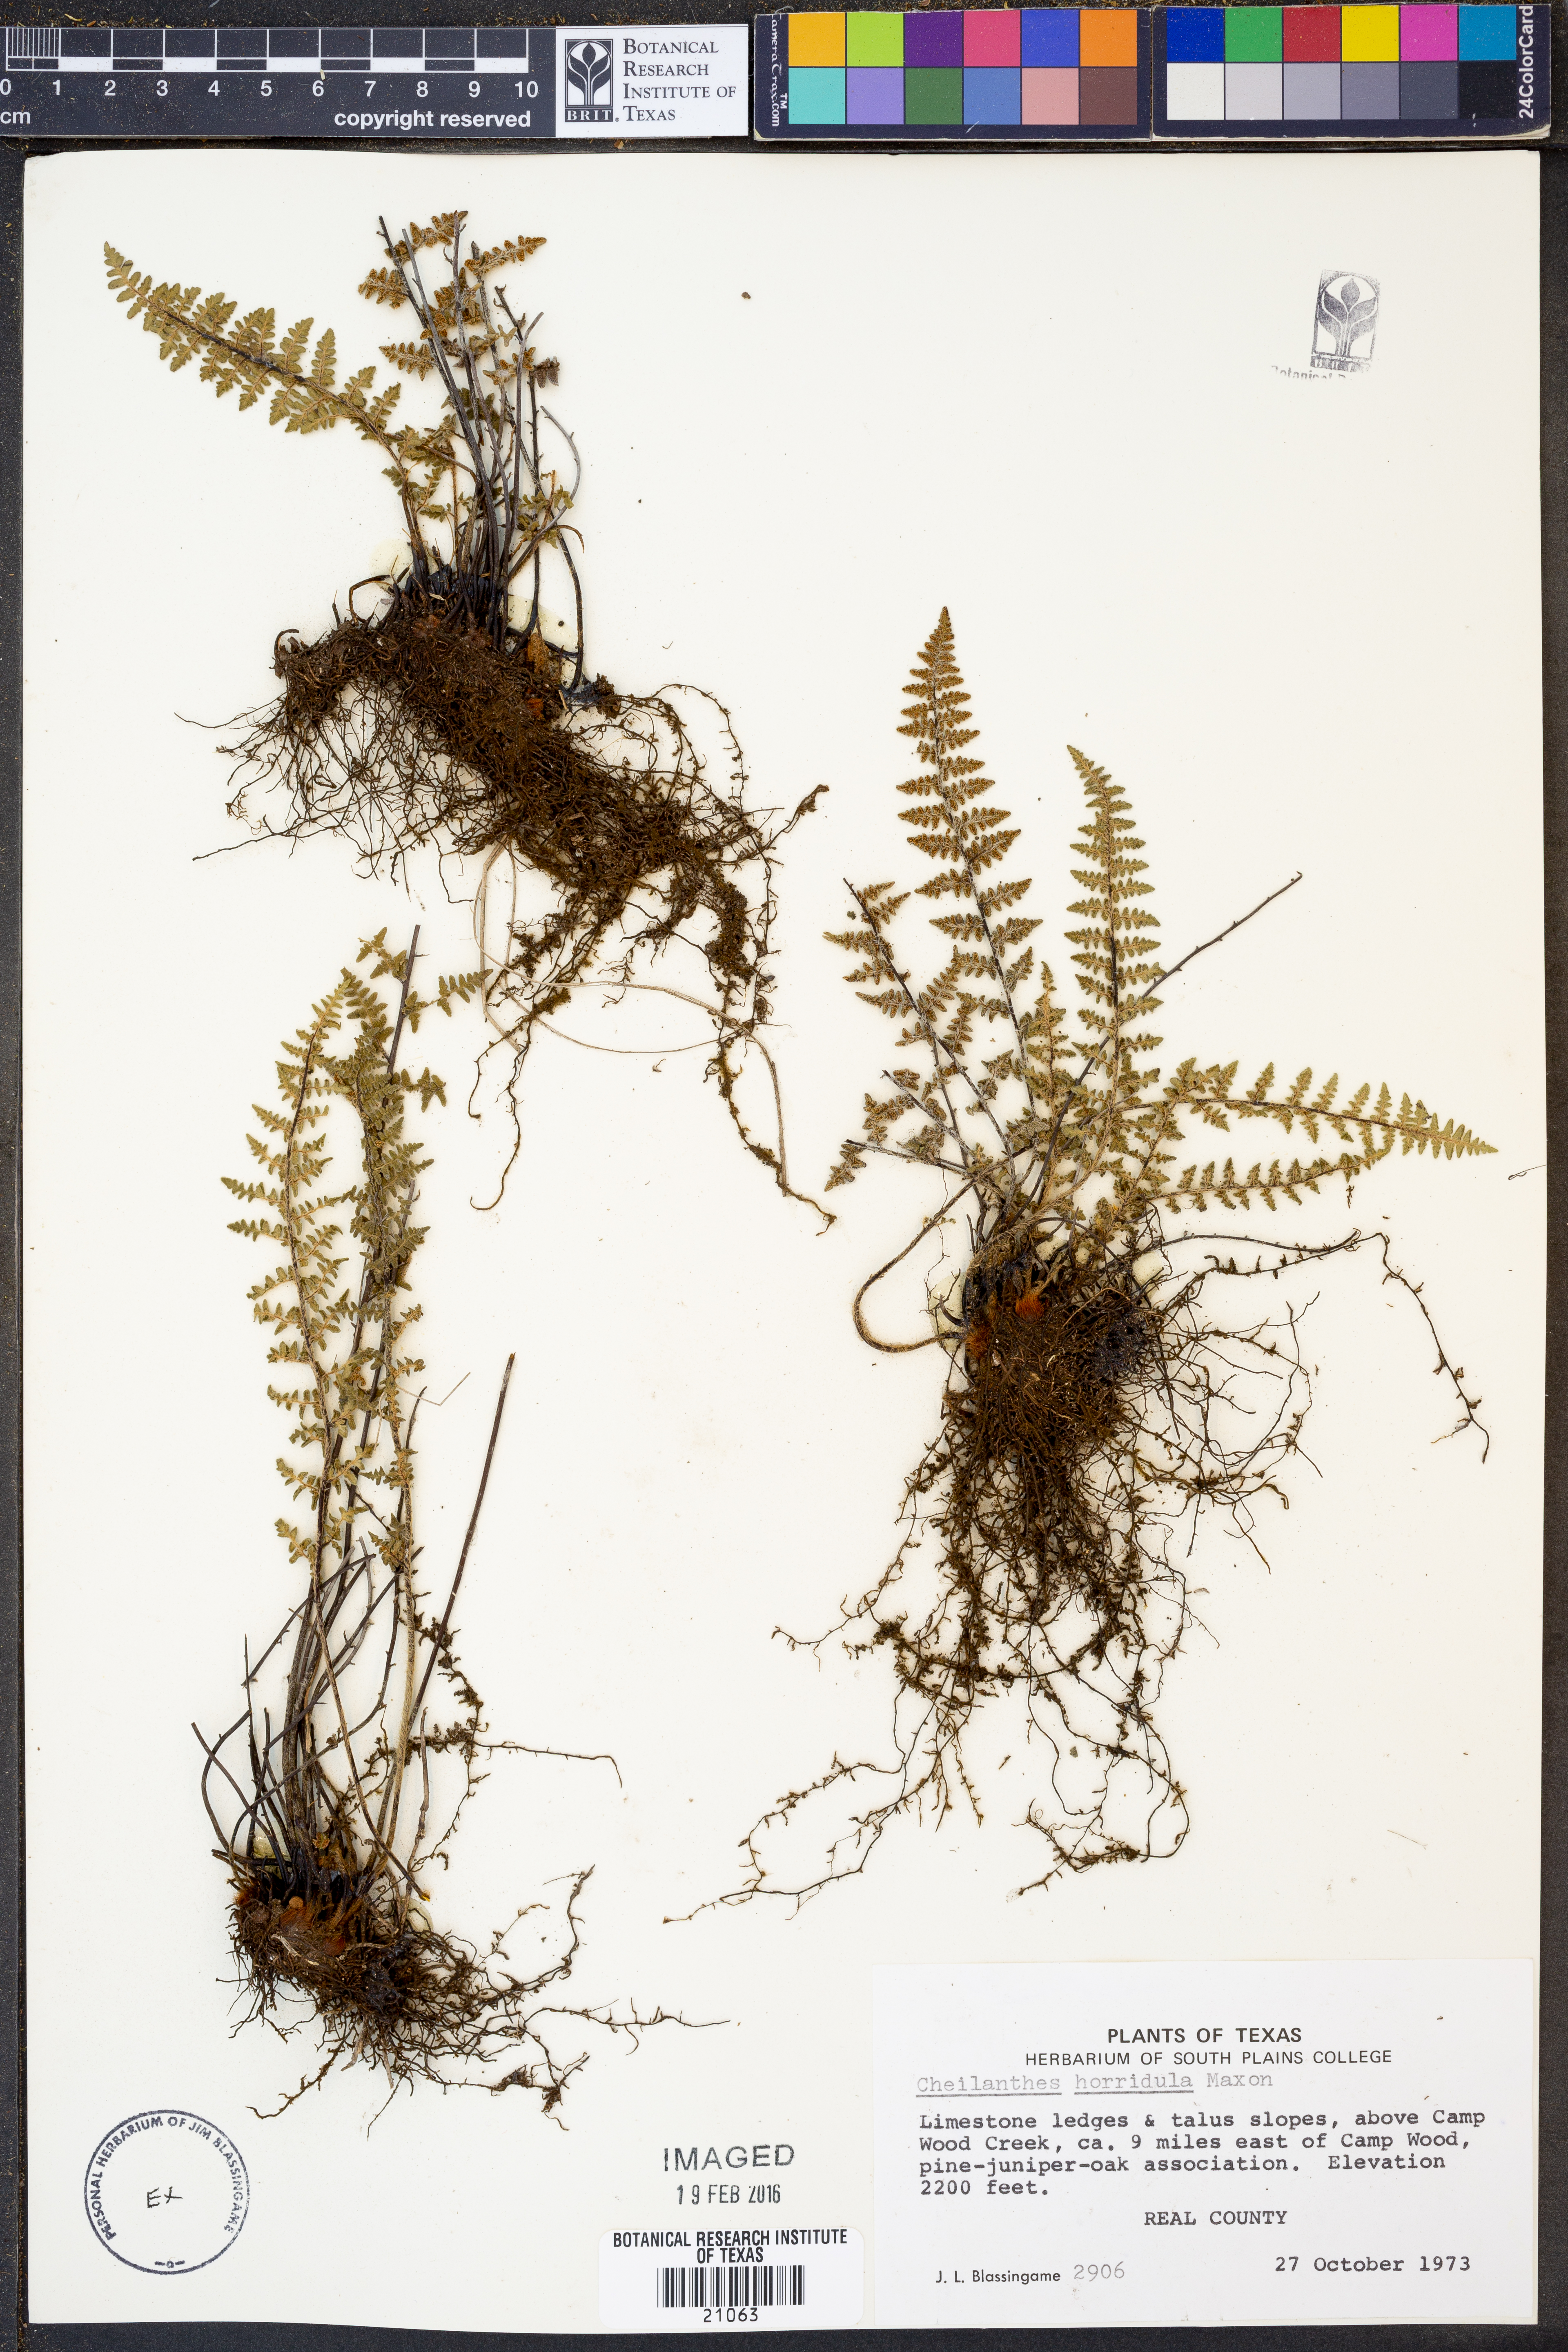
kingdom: Plantae
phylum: Tracheophyta
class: Polypodiopsida
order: Polypodiales
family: Pteridaceae
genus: Myriopteris
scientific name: Myriopteris scabra
